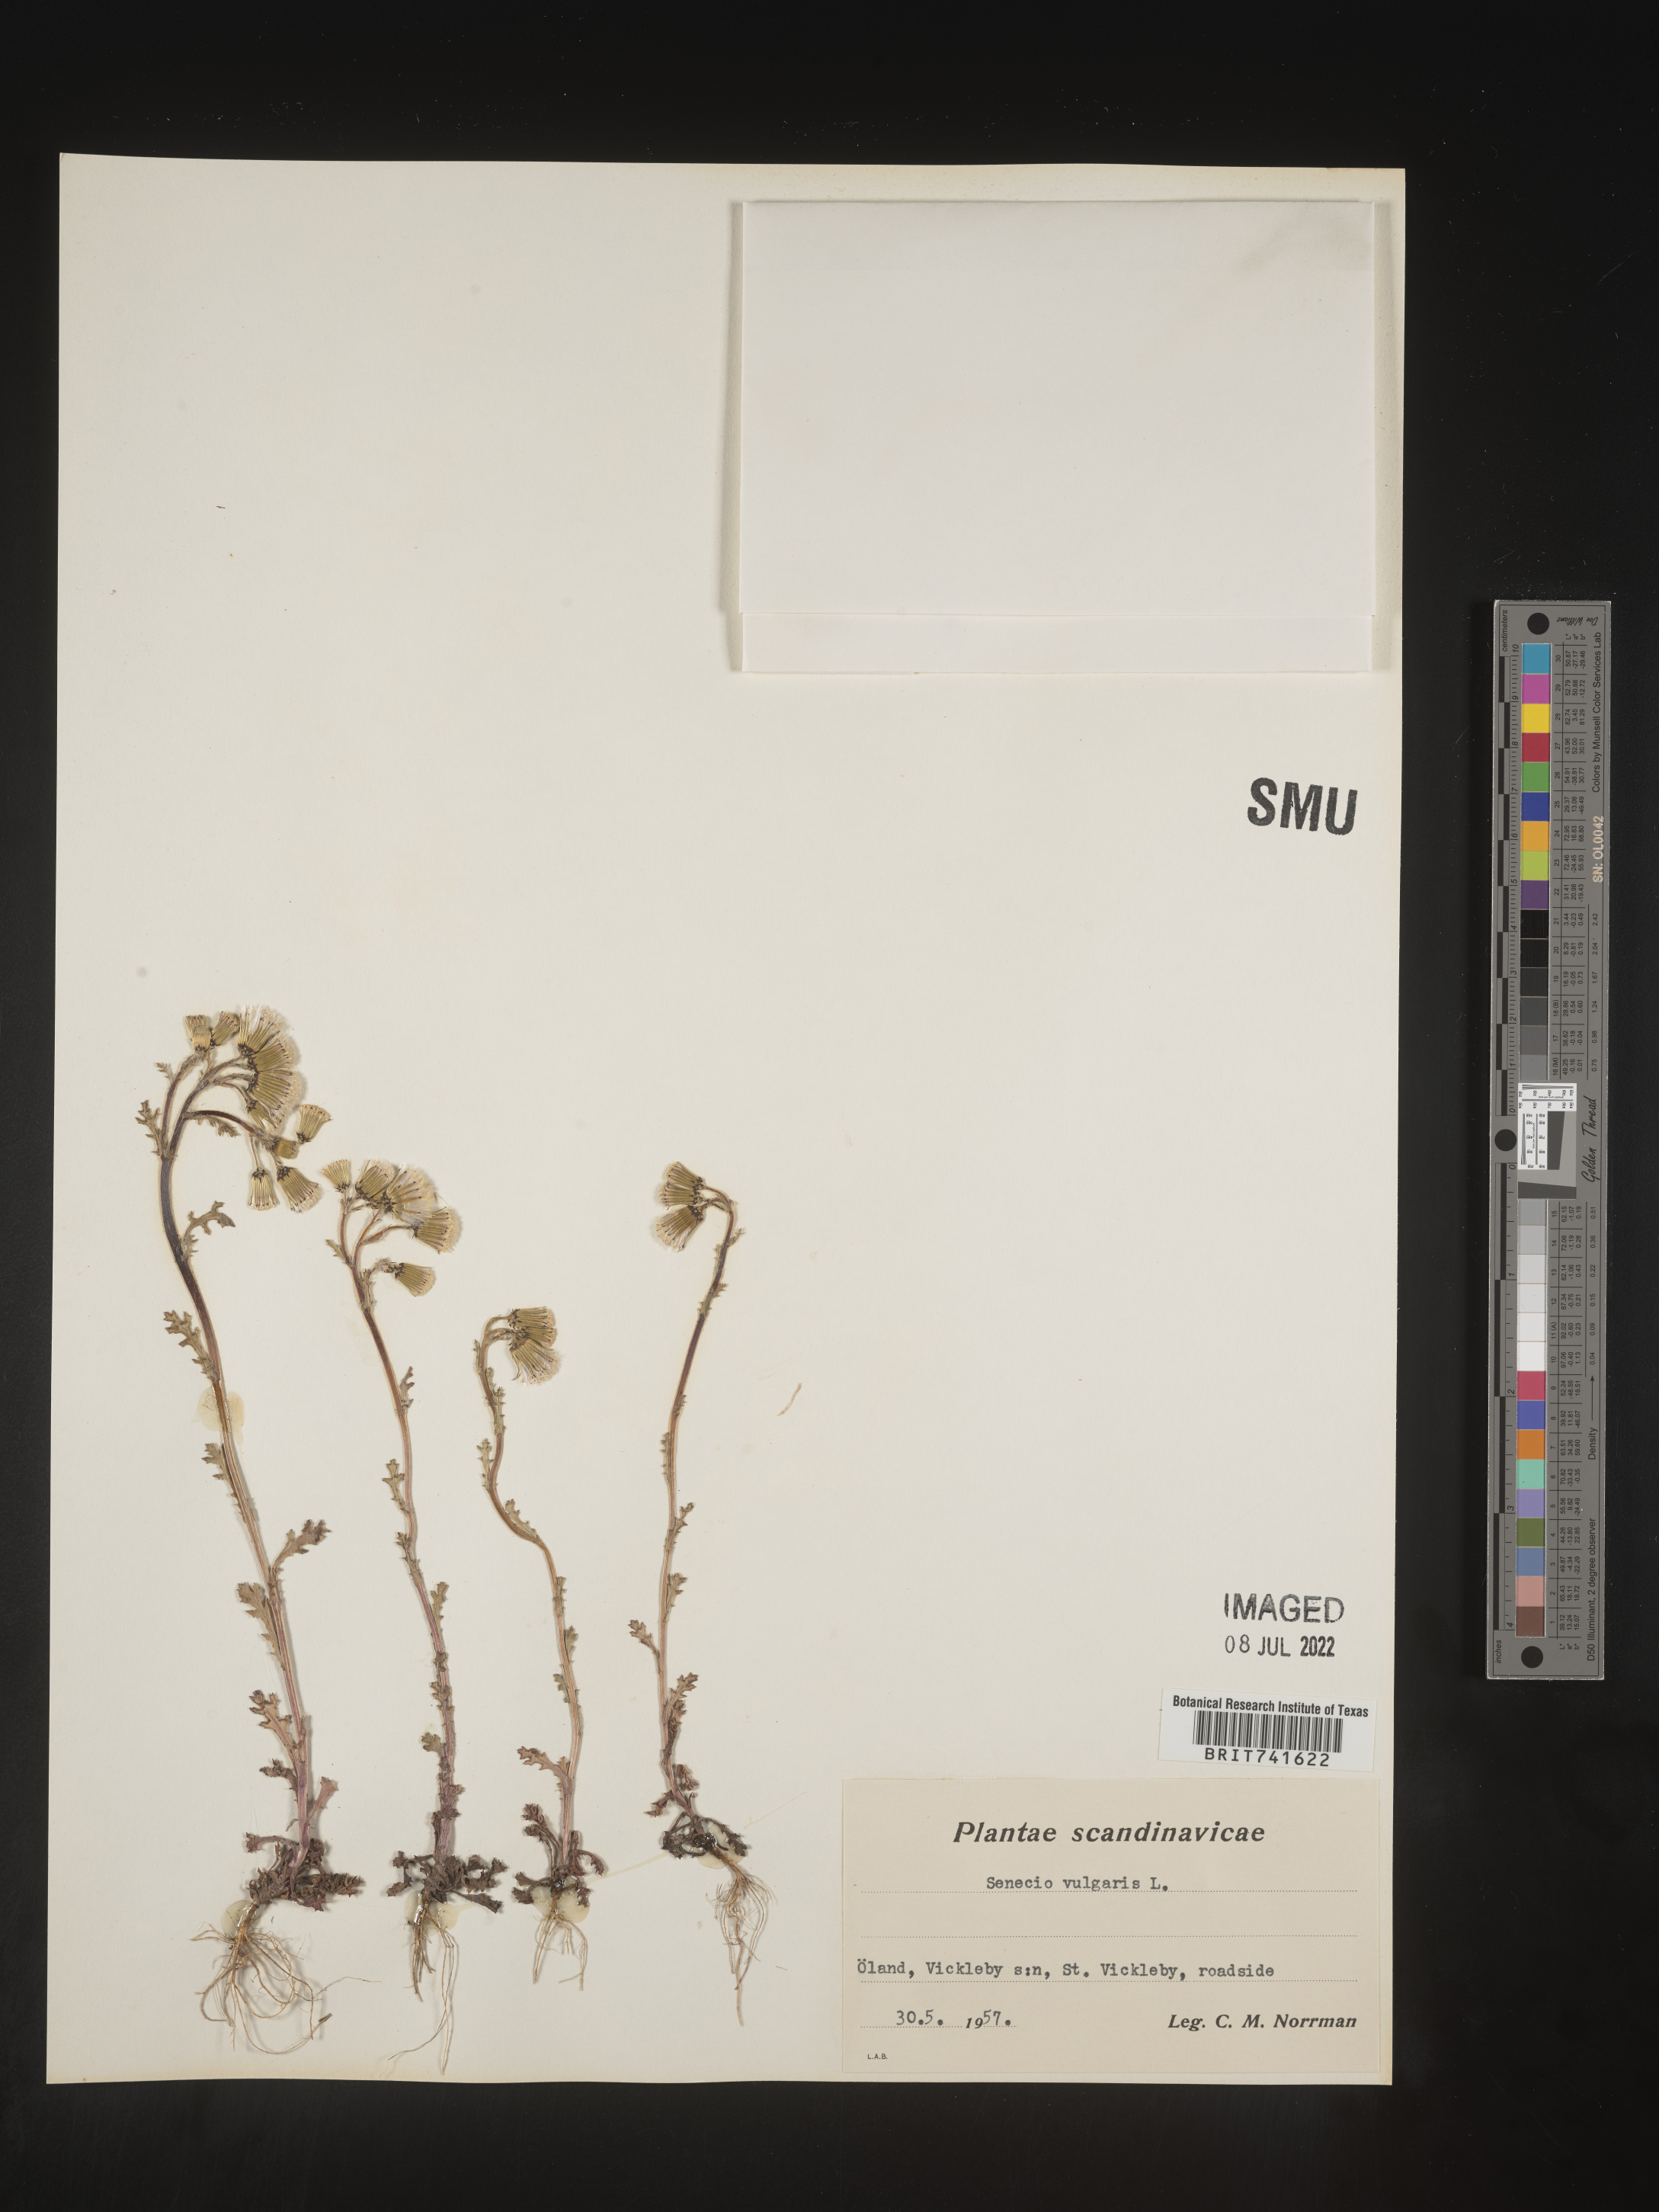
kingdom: Plantae
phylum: Tracheophyta
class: Magnoliopsida
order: Asterales
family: Asteraceae
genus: Senecio
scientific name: Senecio
